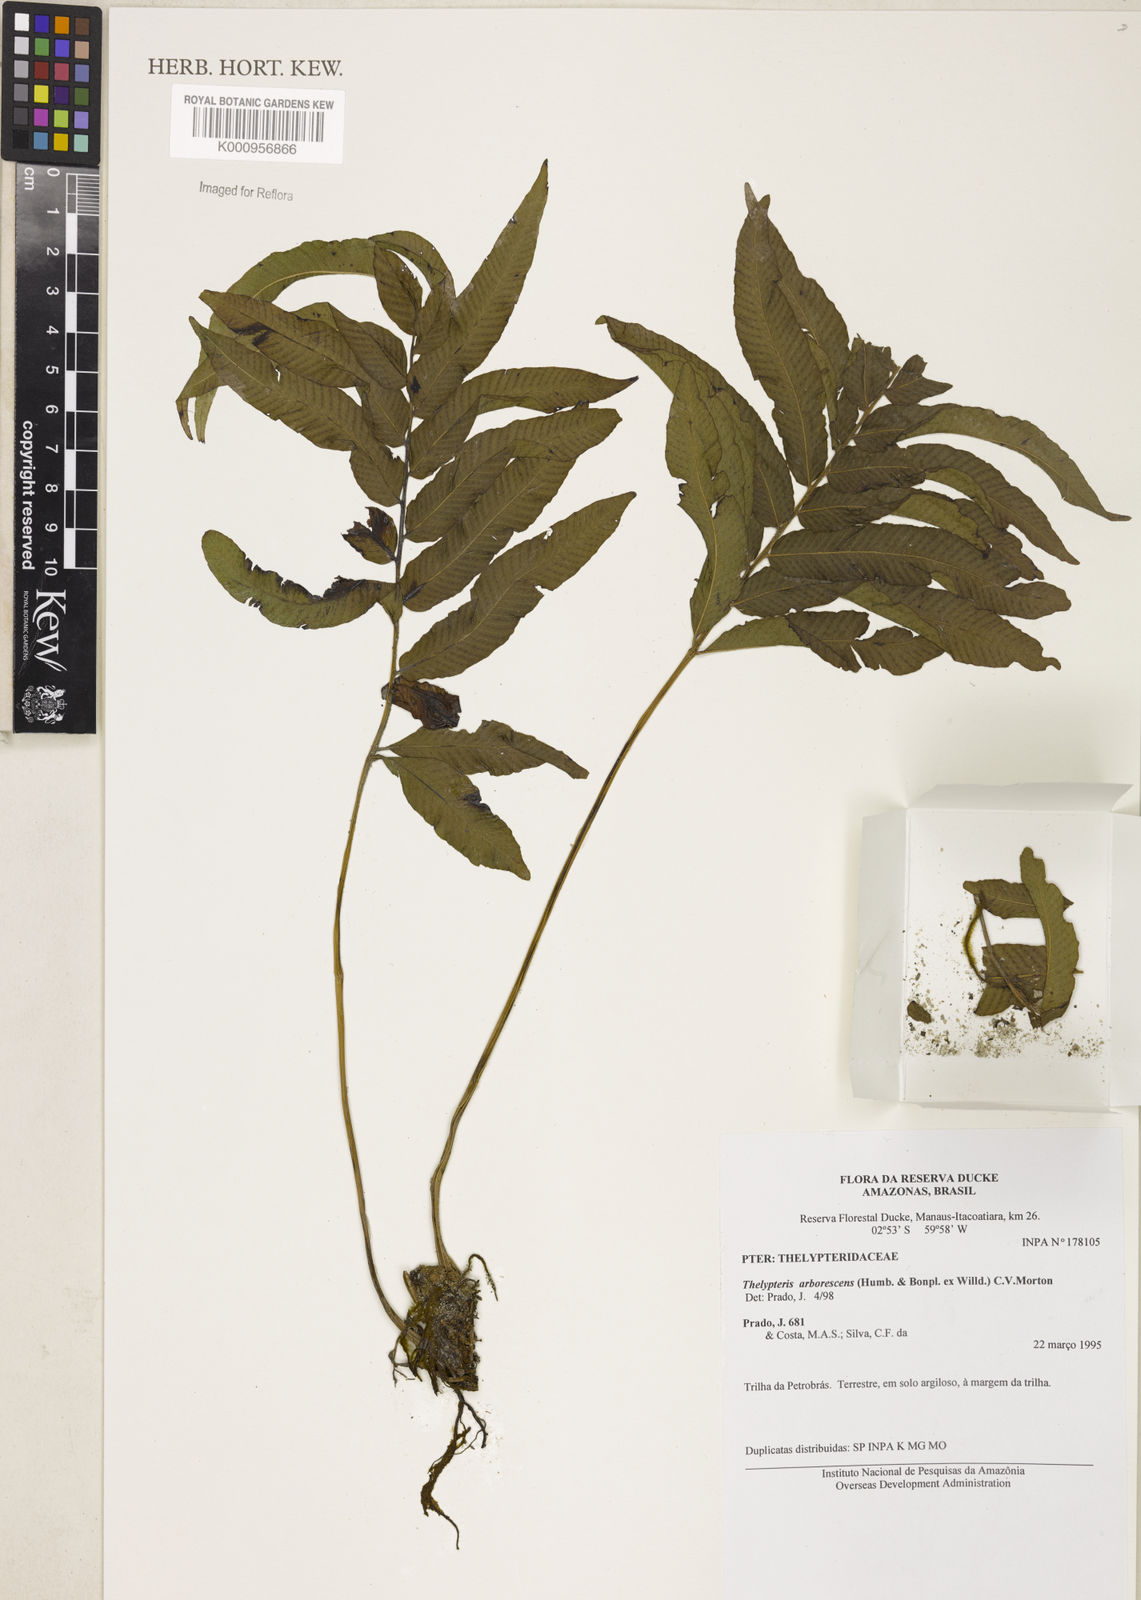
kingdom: Plantae
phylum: Tracheophyta
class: Polypodiopsida
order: Polypodiales
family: Thelypteridaceae
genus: Meniscium
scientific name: Meniscium arborescens
